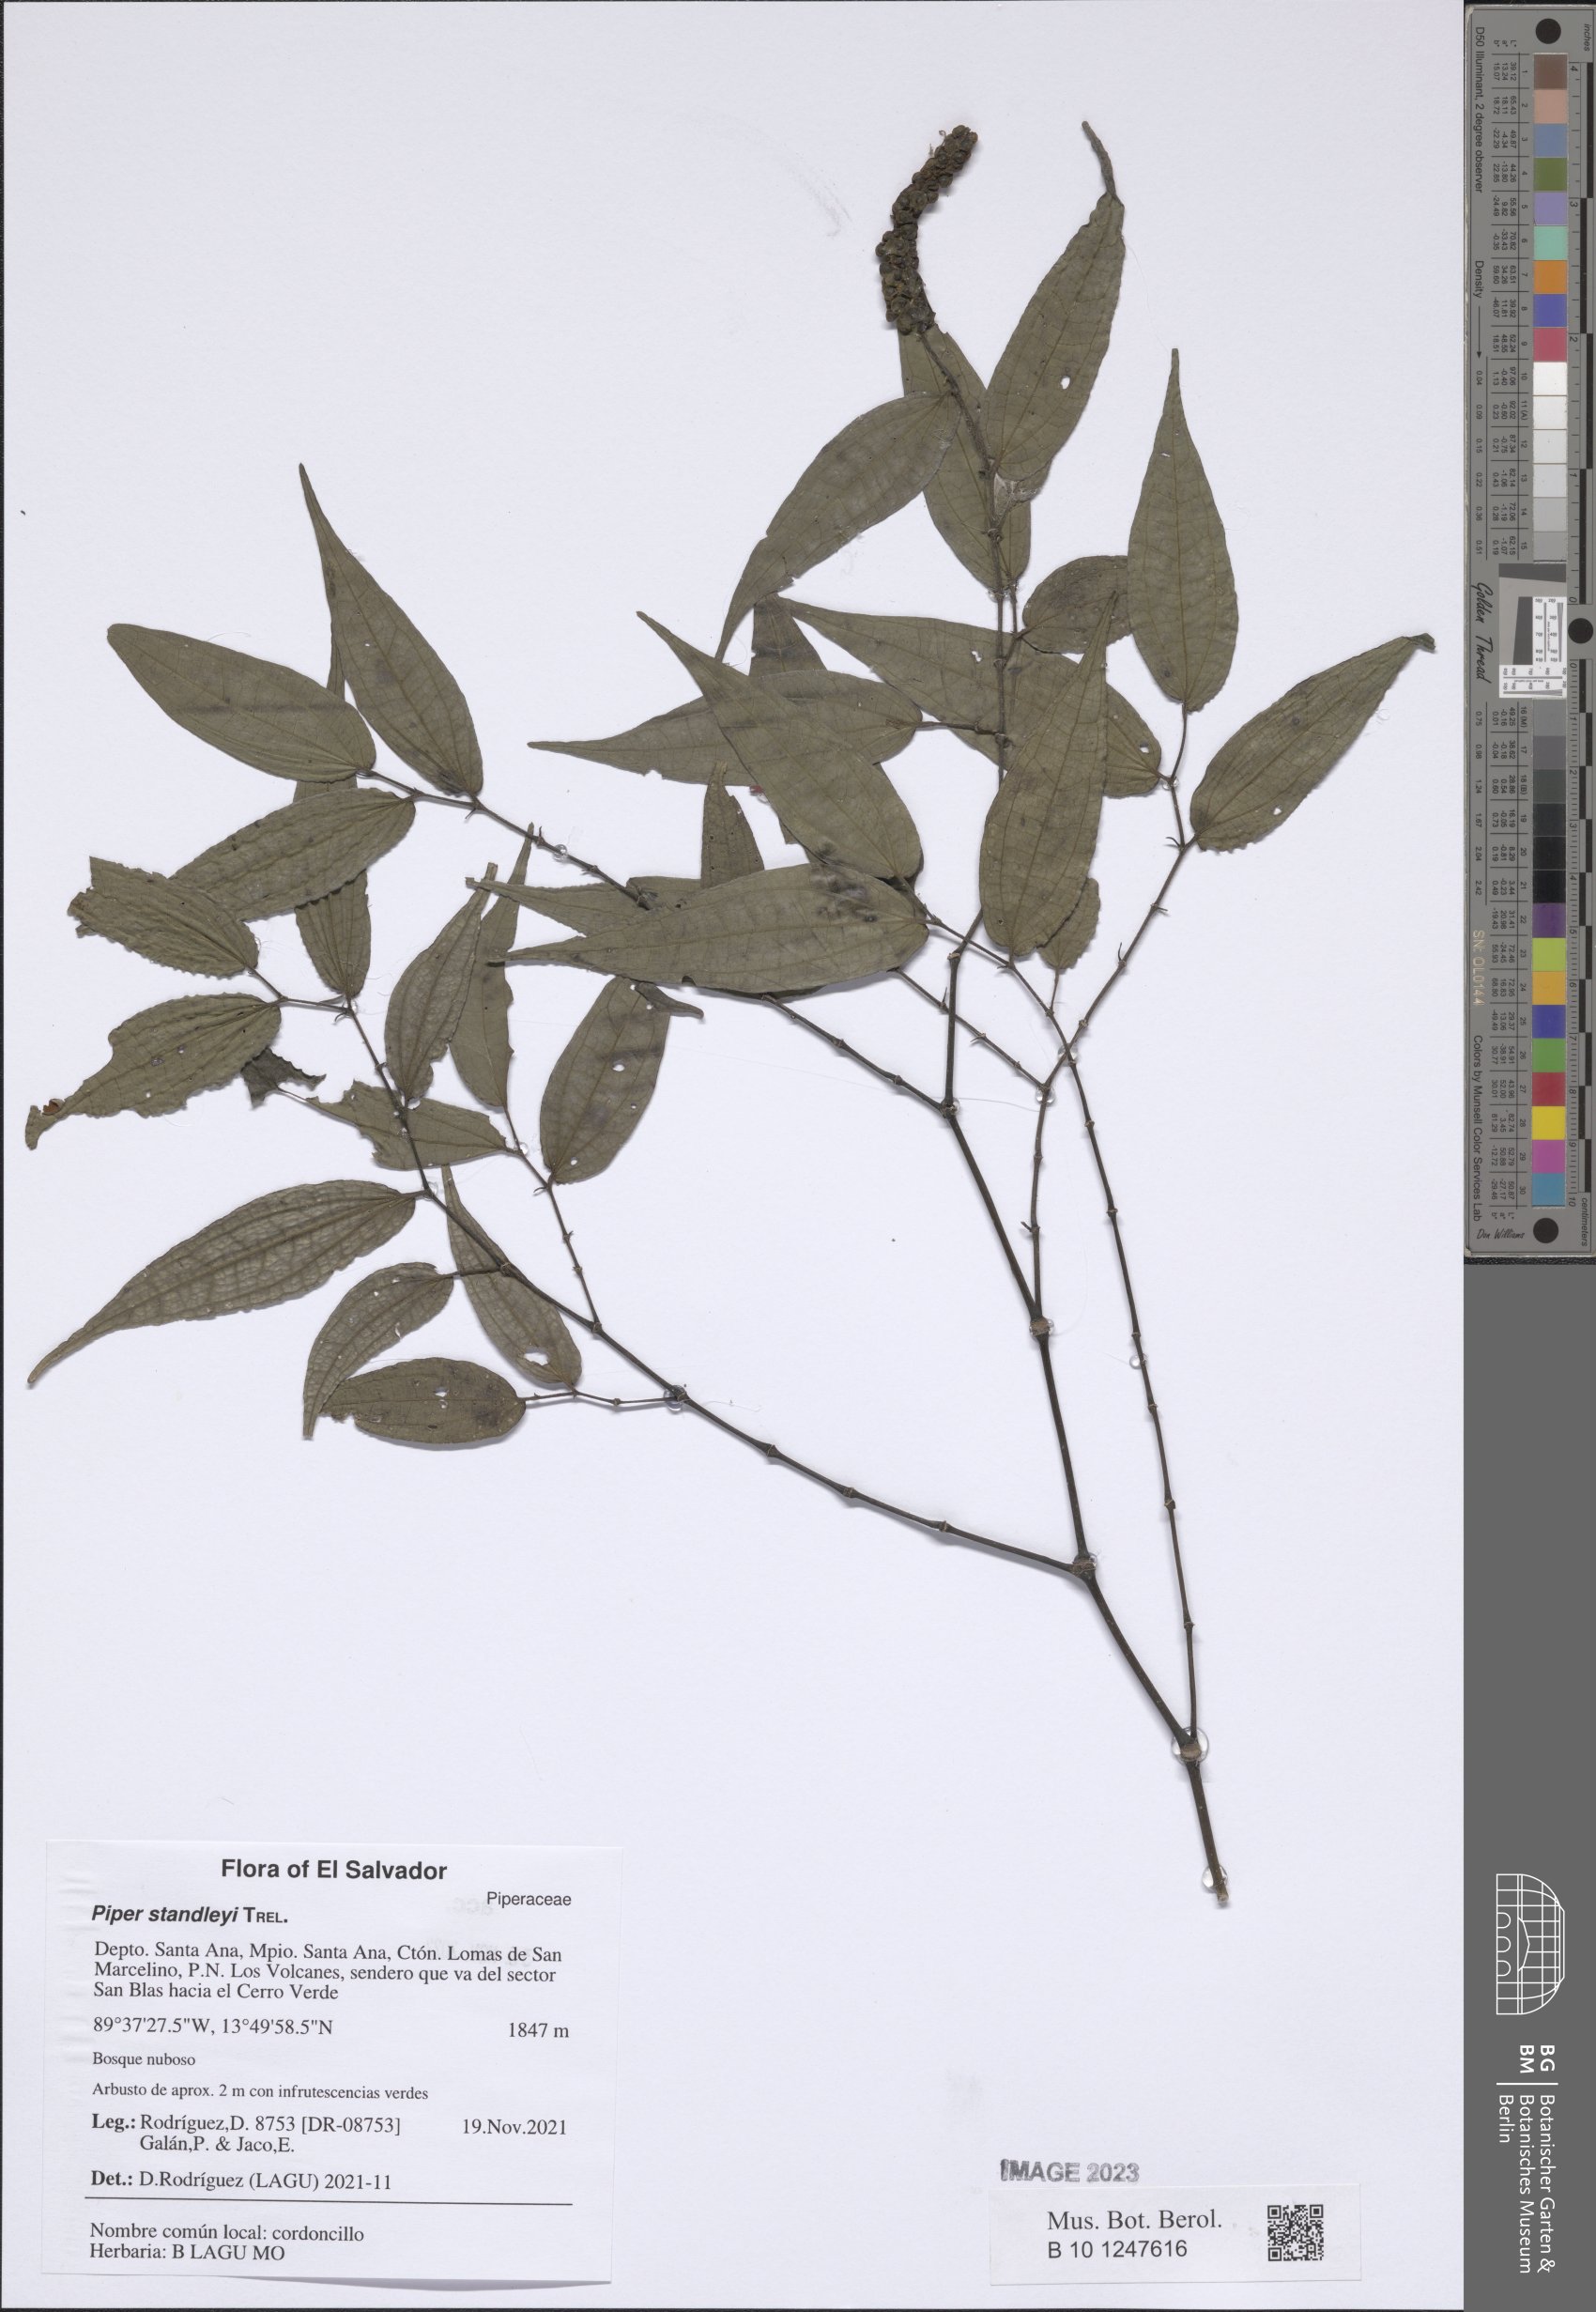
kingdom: Plantae
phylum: Tracheophyta
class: Magnoliopsida
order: Piperales
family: Piperaceae
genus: Piper
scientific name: Piper standleyi
